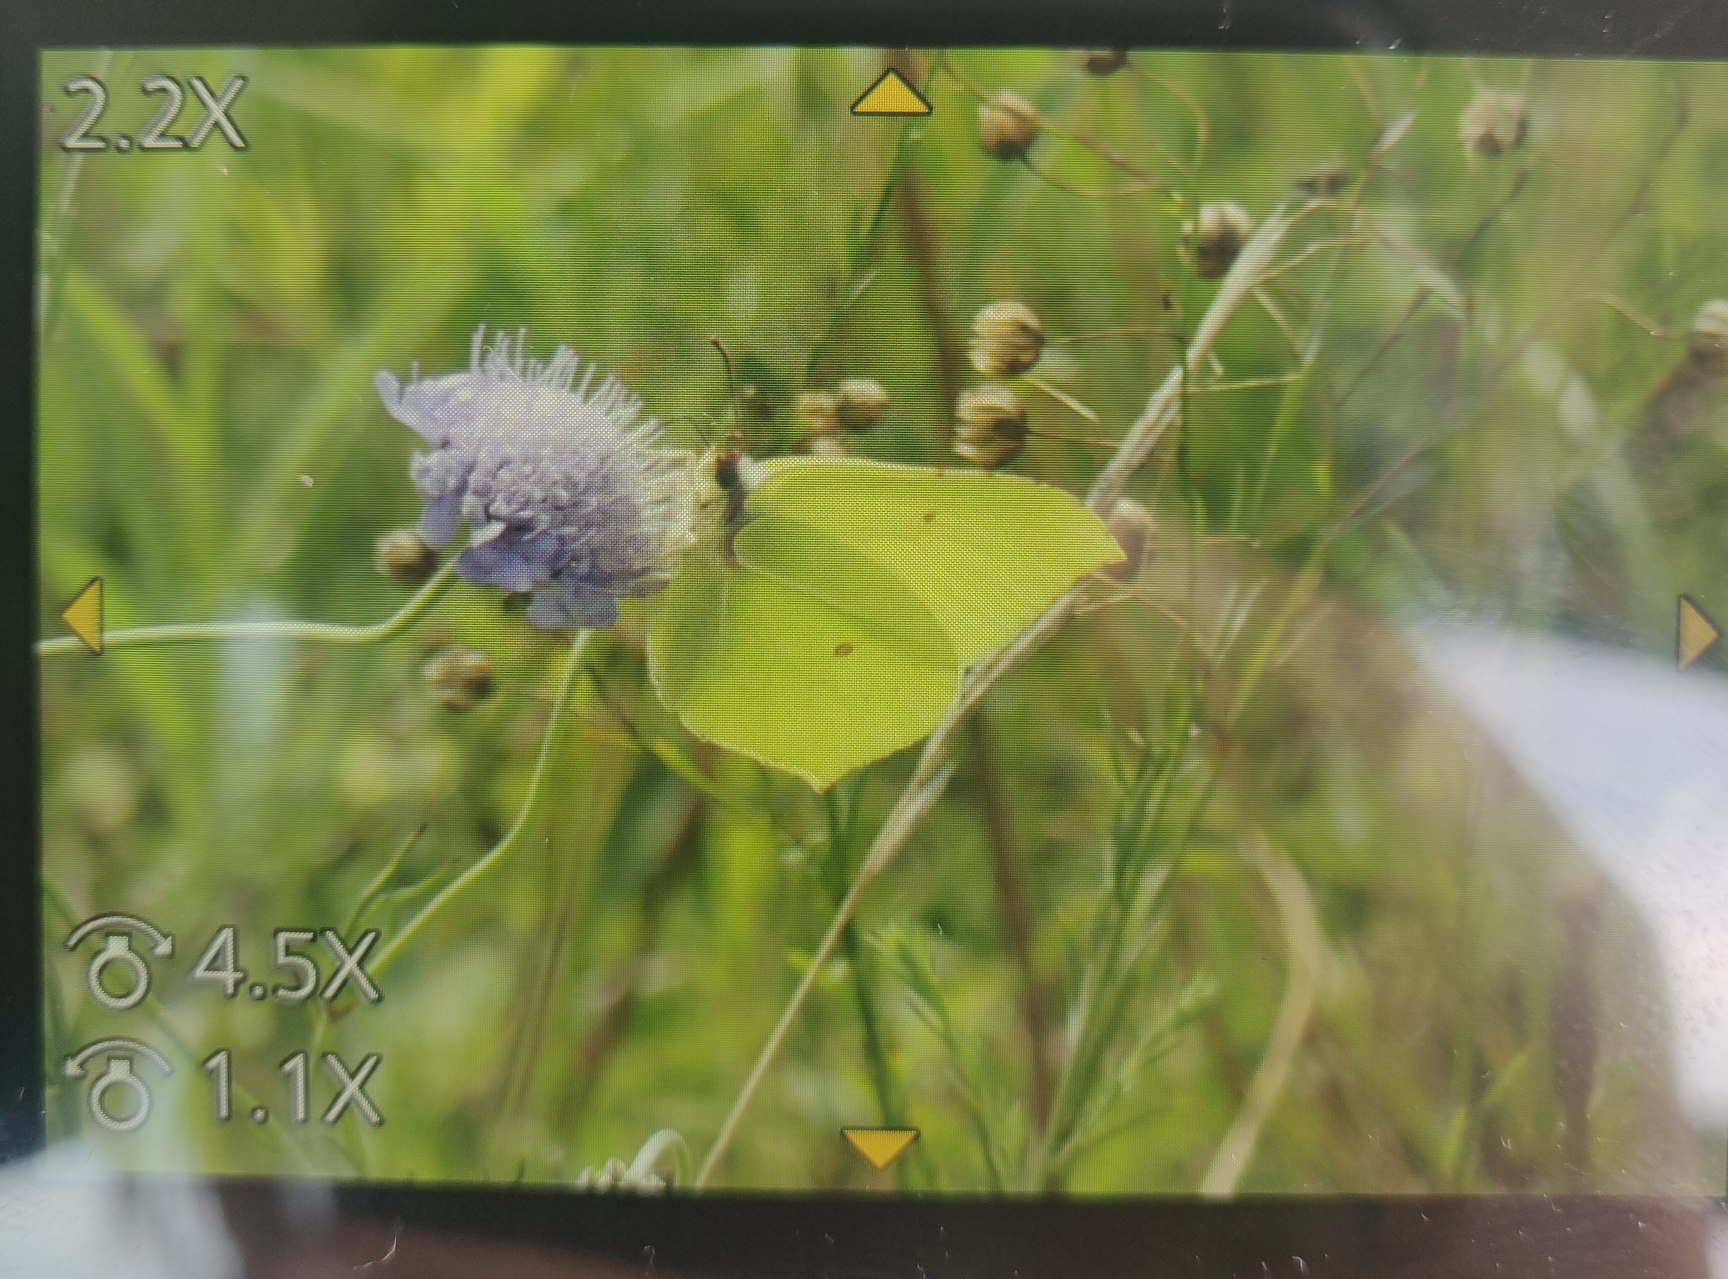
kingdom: Animalia
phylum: Arthropoda
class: Insecta
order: Lepidoptera
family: Pieridae
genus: Gonepteryx
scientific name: Gonepteryx rhamni
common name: Citronsommerfugl
